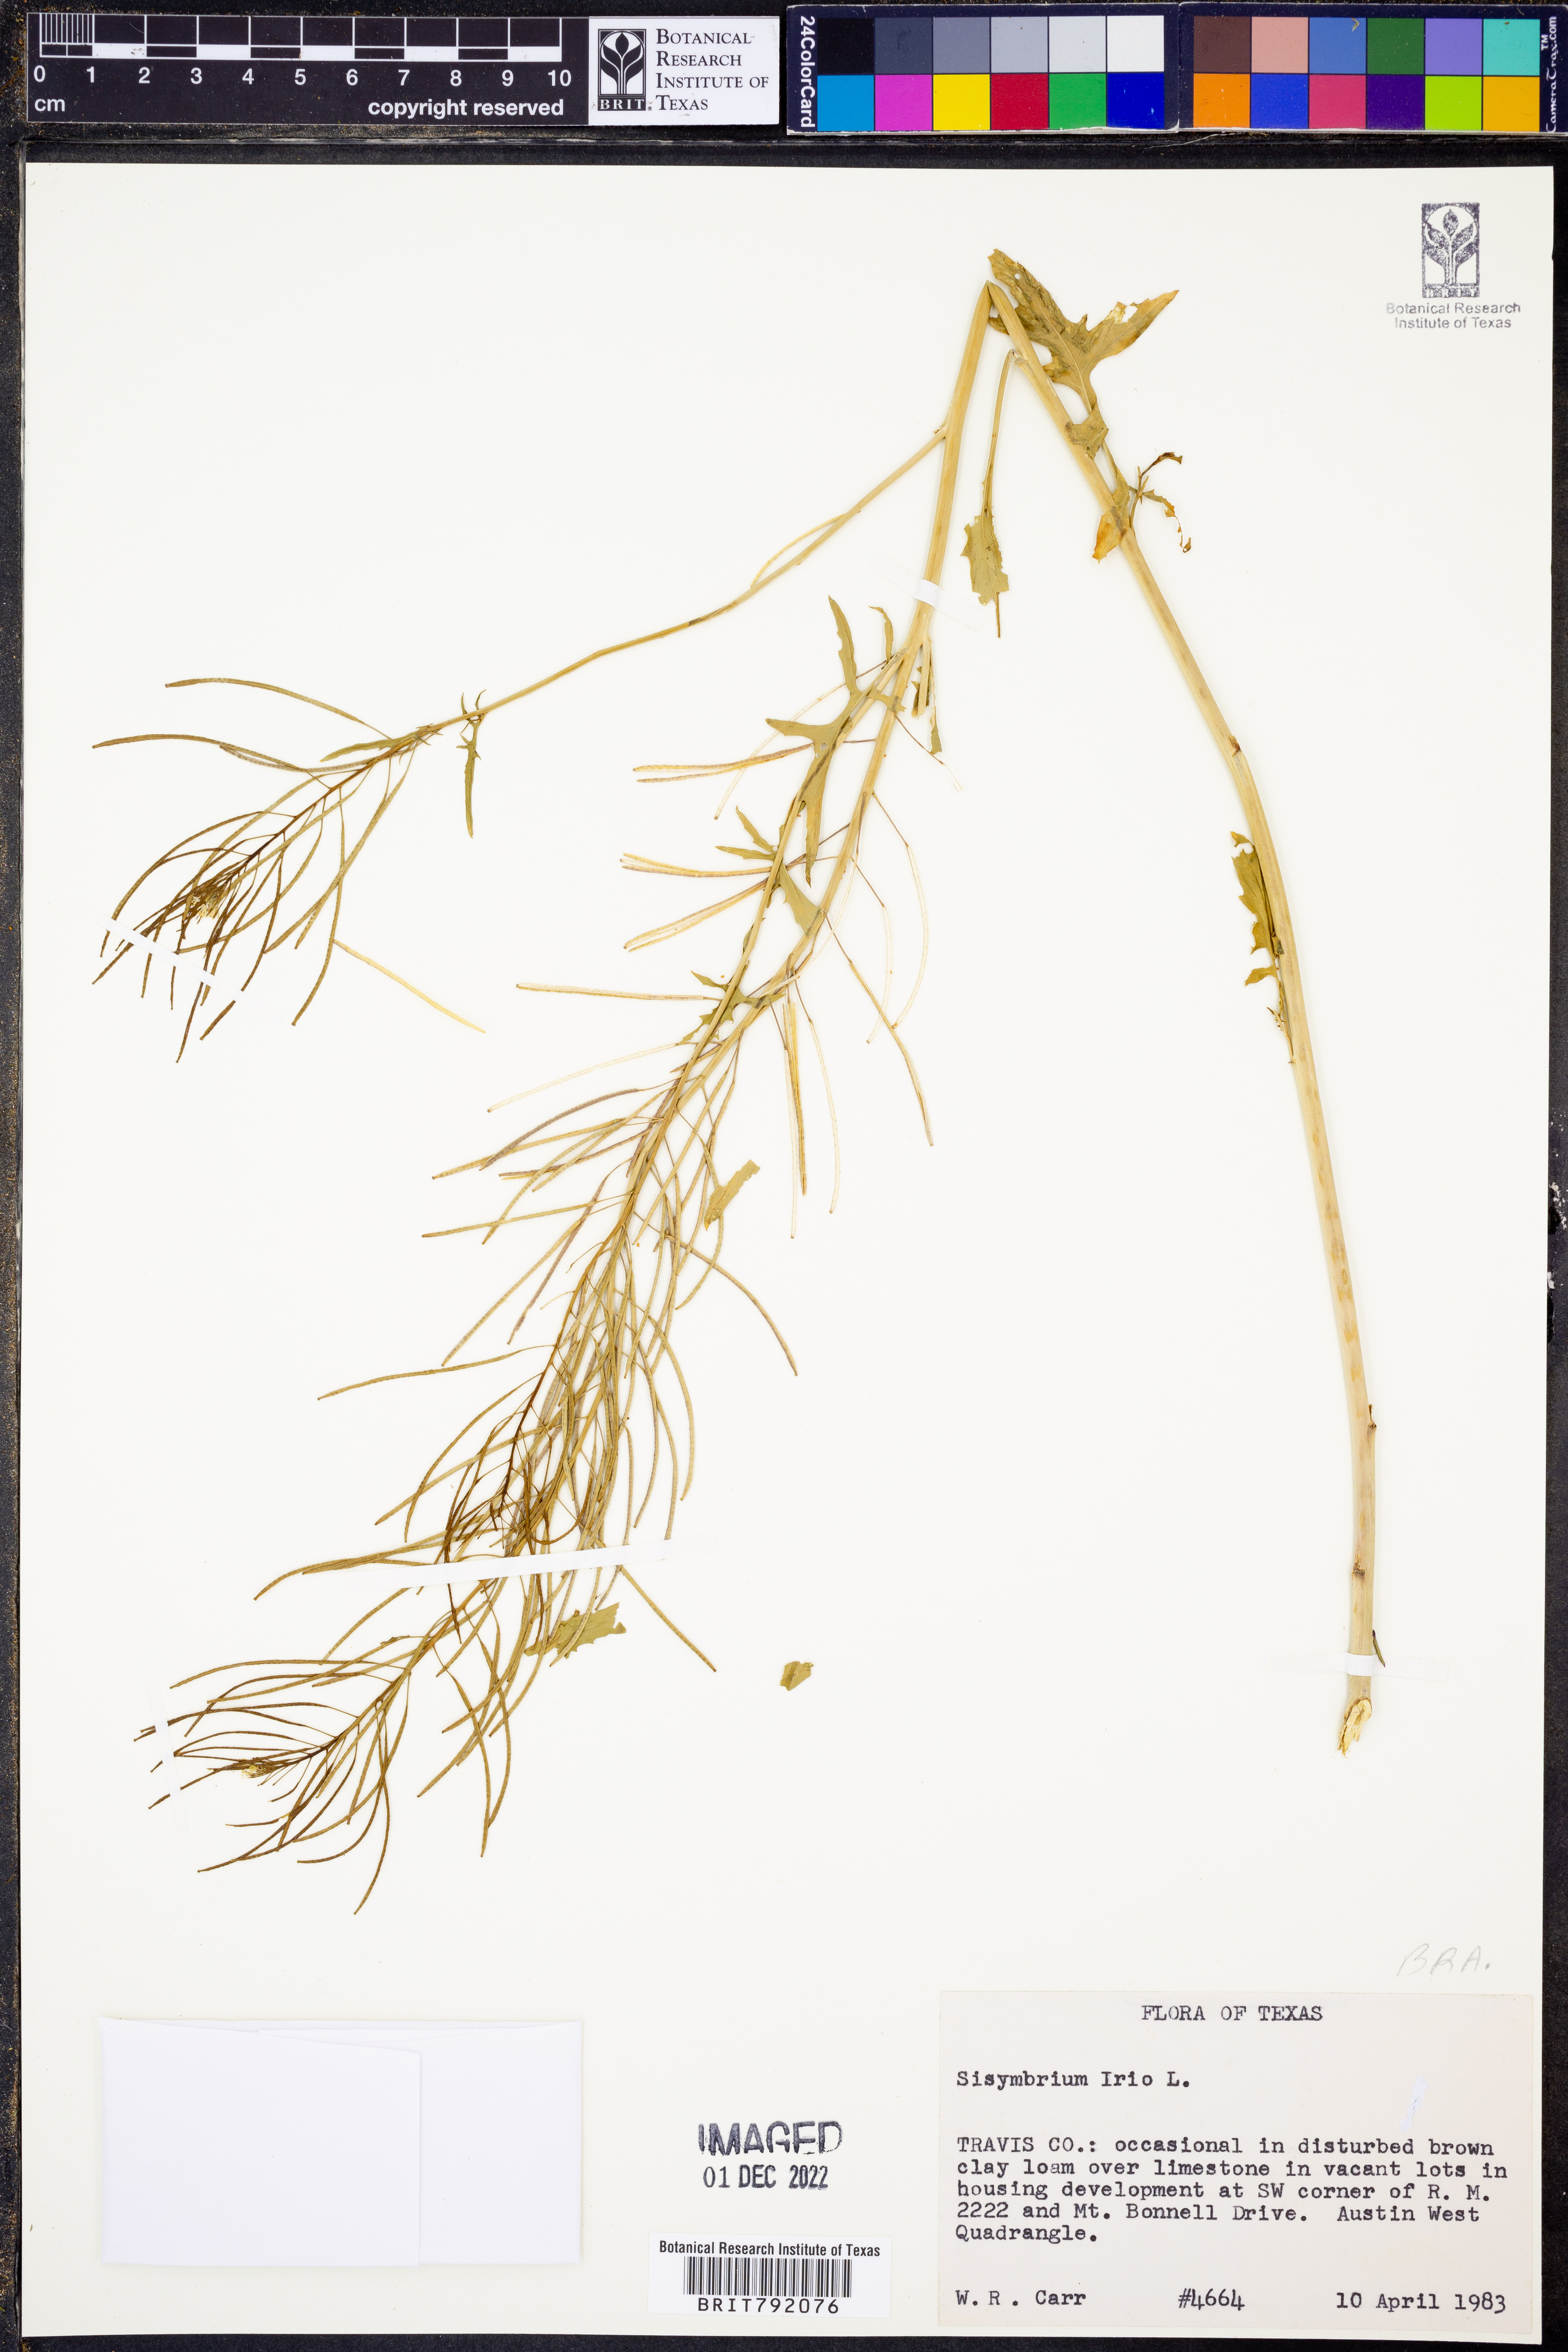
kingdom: Plantae
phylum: Tracheophyta
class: Magnoliopsida
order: Brassicales
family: Brassicaceae
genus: Sisymbrium
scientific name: Sisymbrium irio
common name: London rocket
